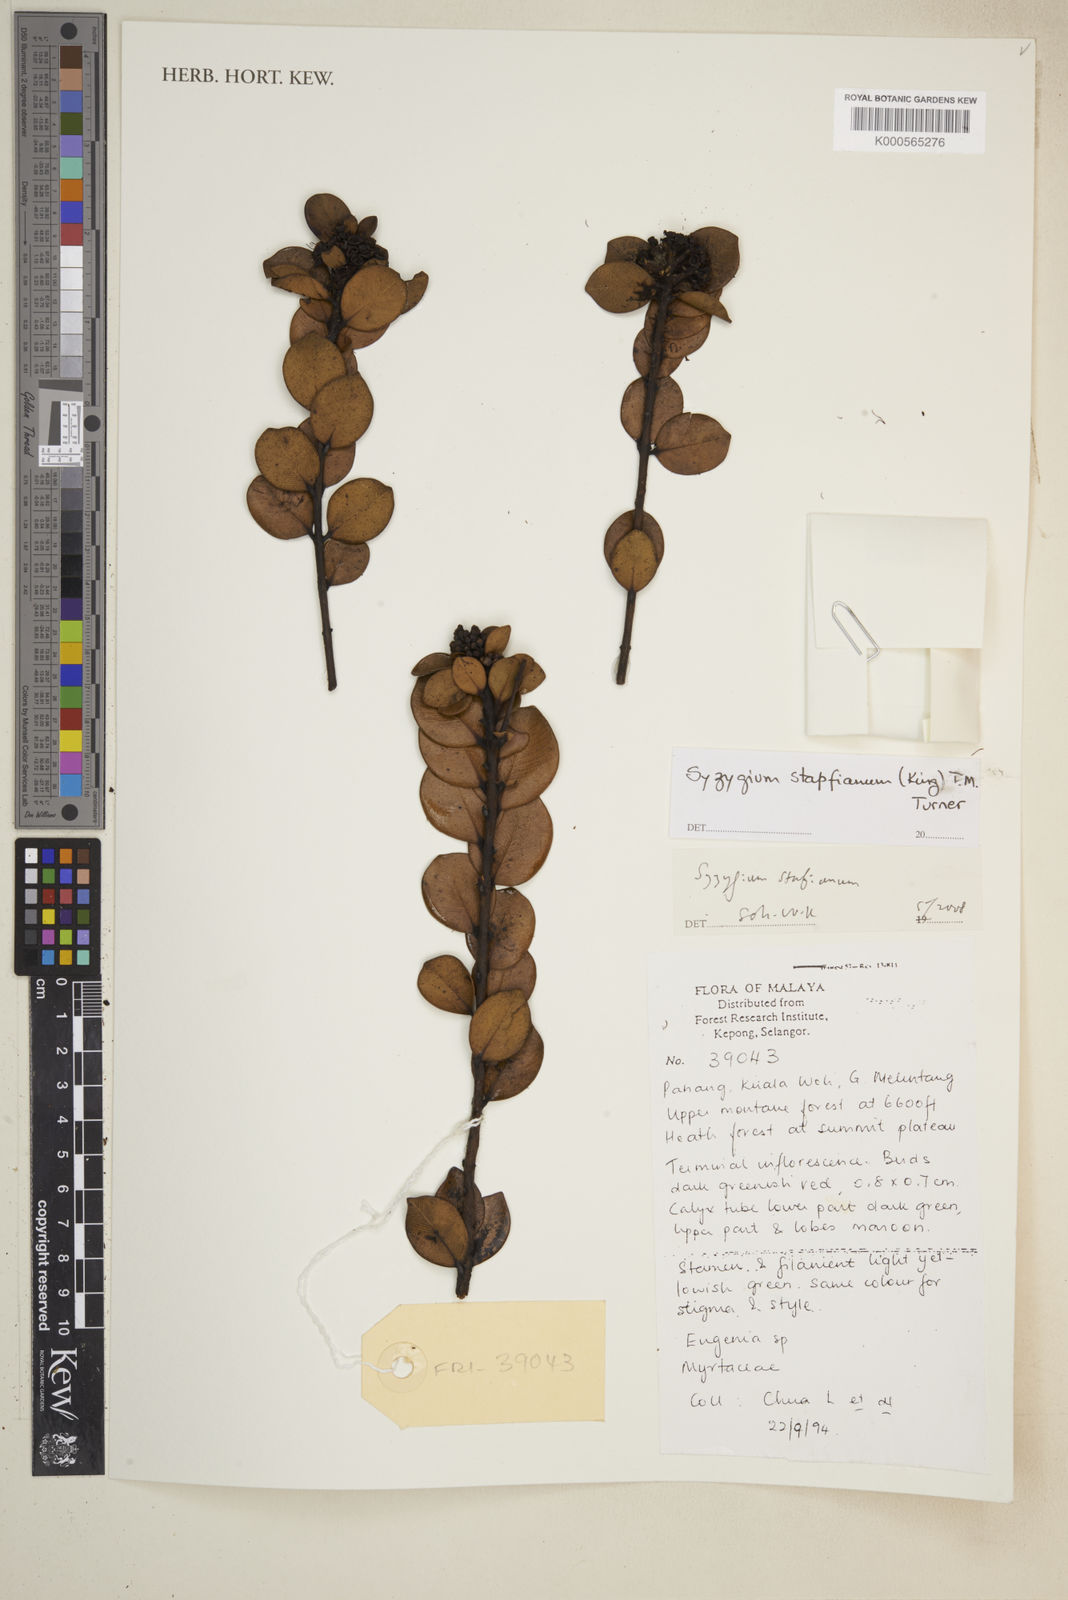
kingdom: Plantae
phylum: Tracheophyta
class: Magnoliopsida
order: Myrtales
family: Myrtaceae
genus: Syzygium
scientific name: Syzygium stapfianum
